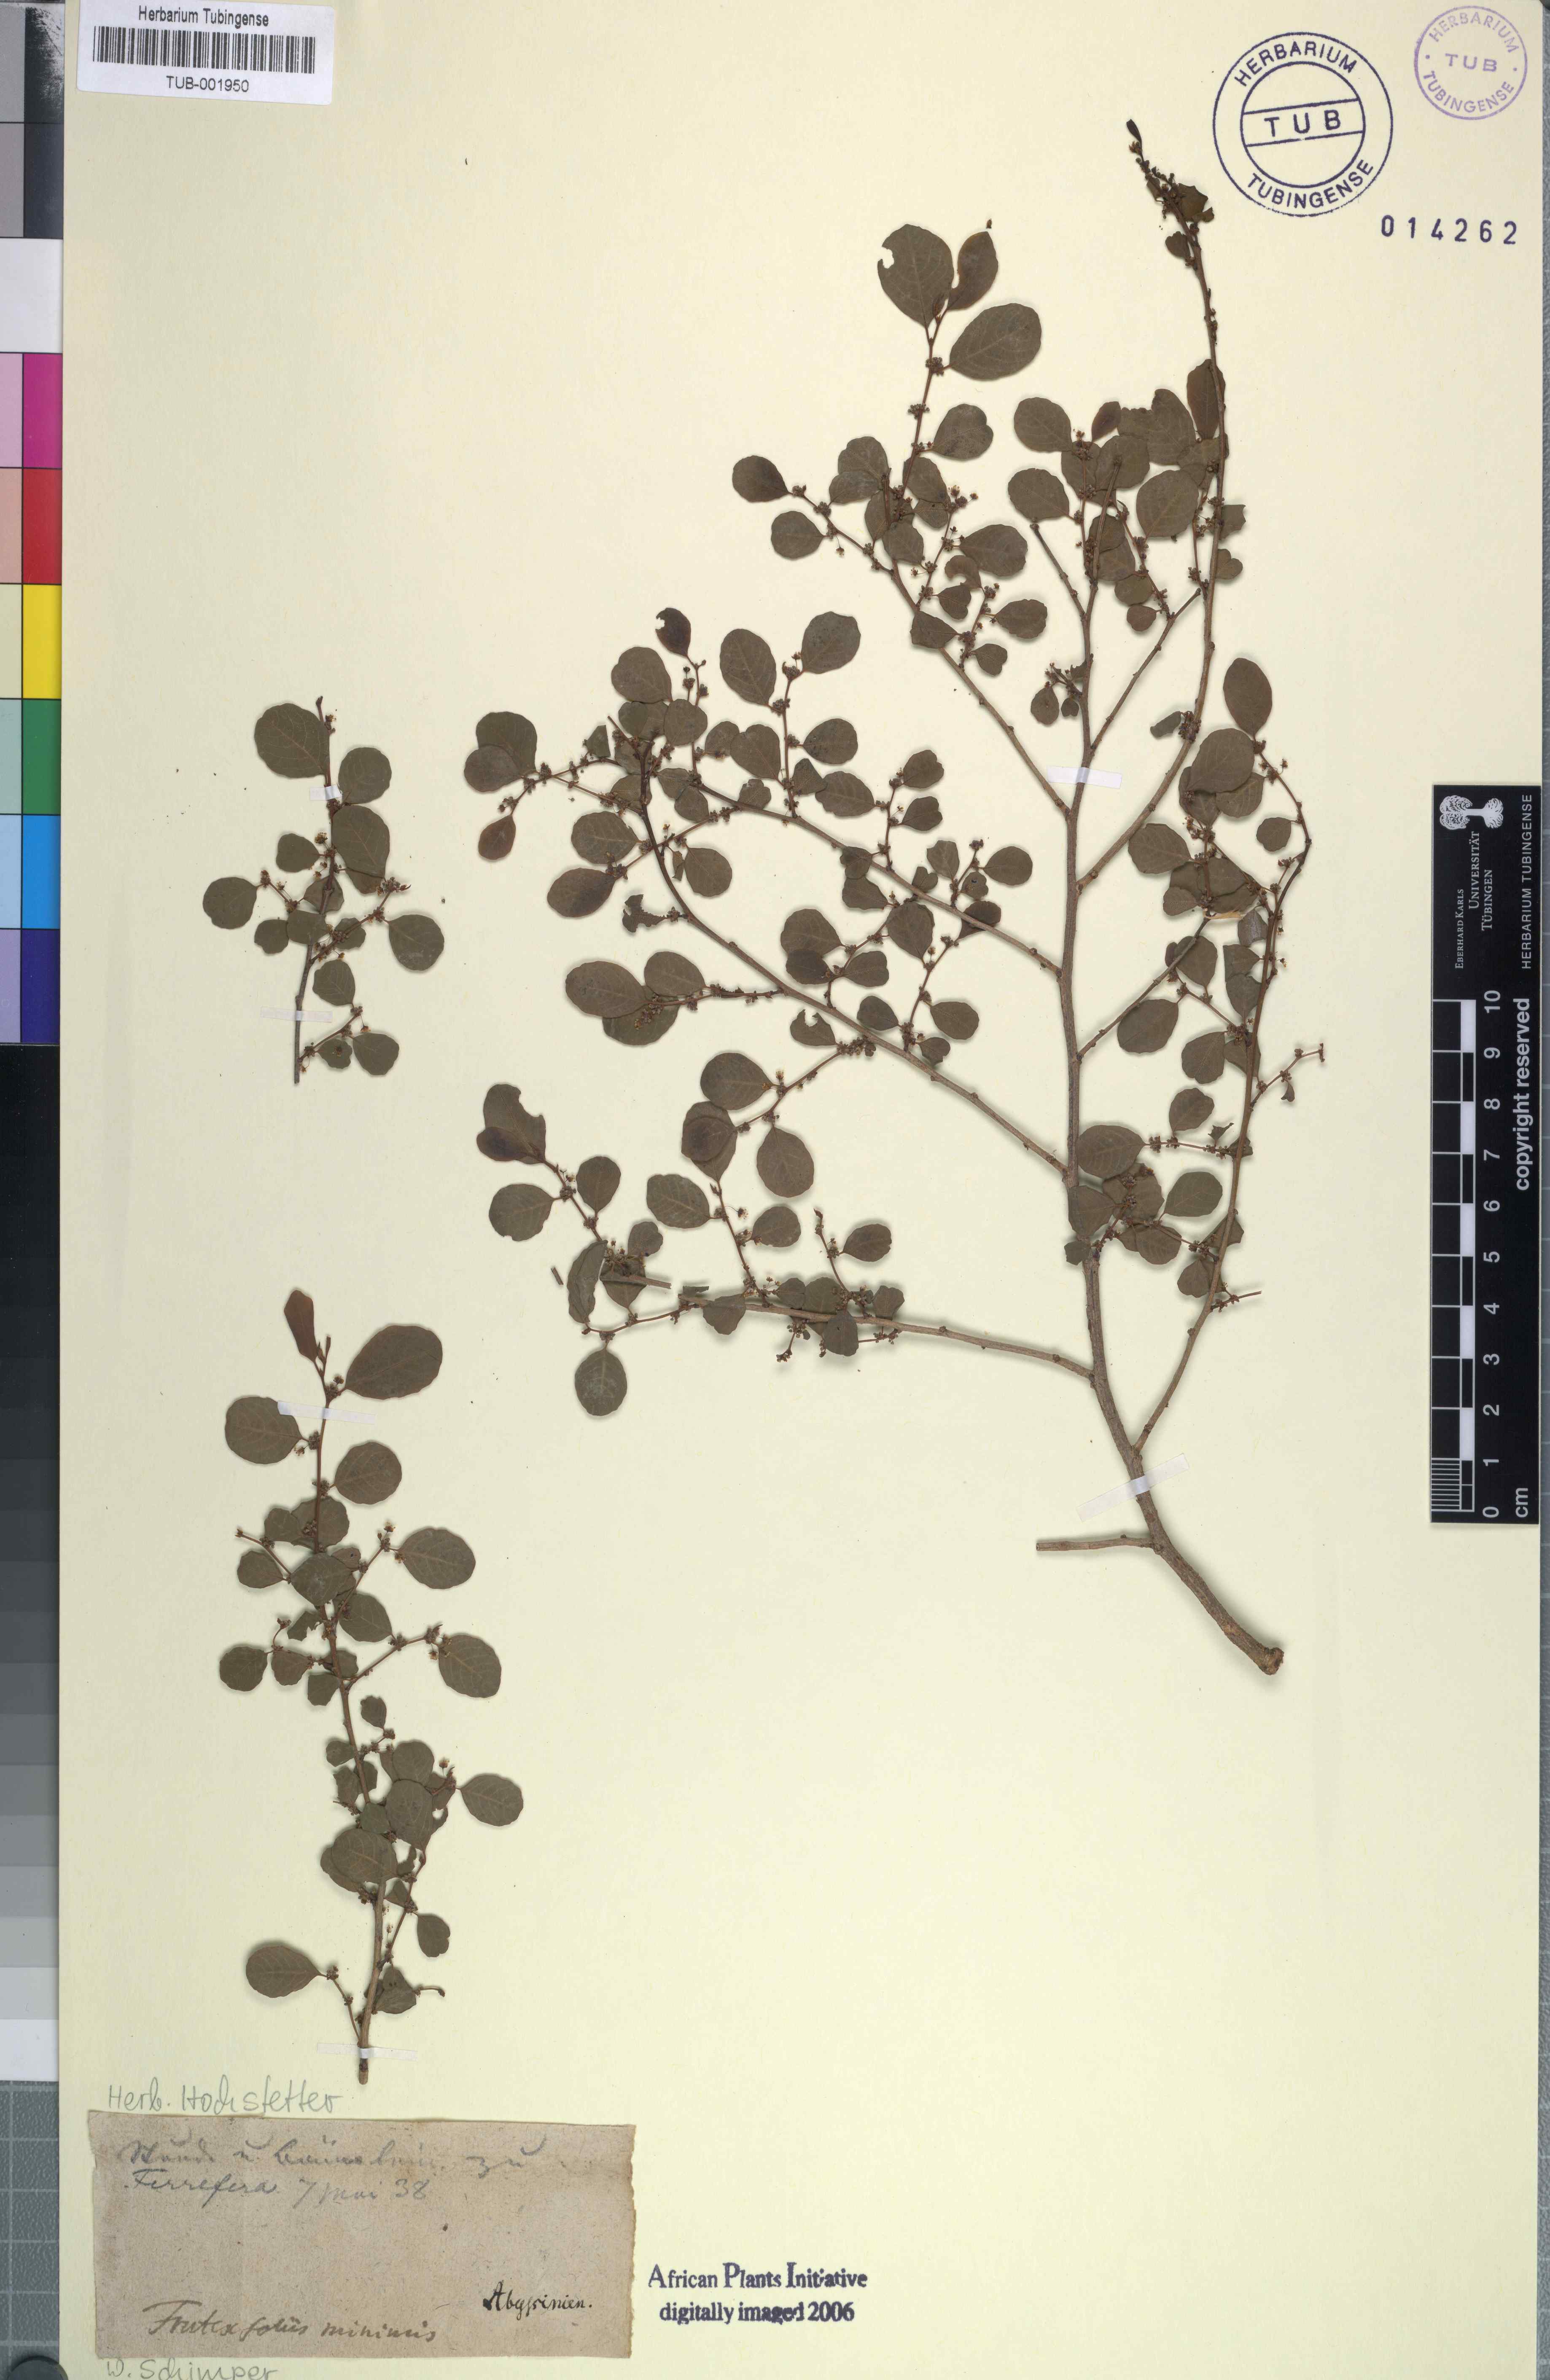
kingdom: Plantae
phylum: Tracheophyta
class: Magnoliopsida
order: Malpighiales
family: Phyllanthaceae
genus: Flueggea
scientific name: Flueggea virosa
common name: Common bushweed
